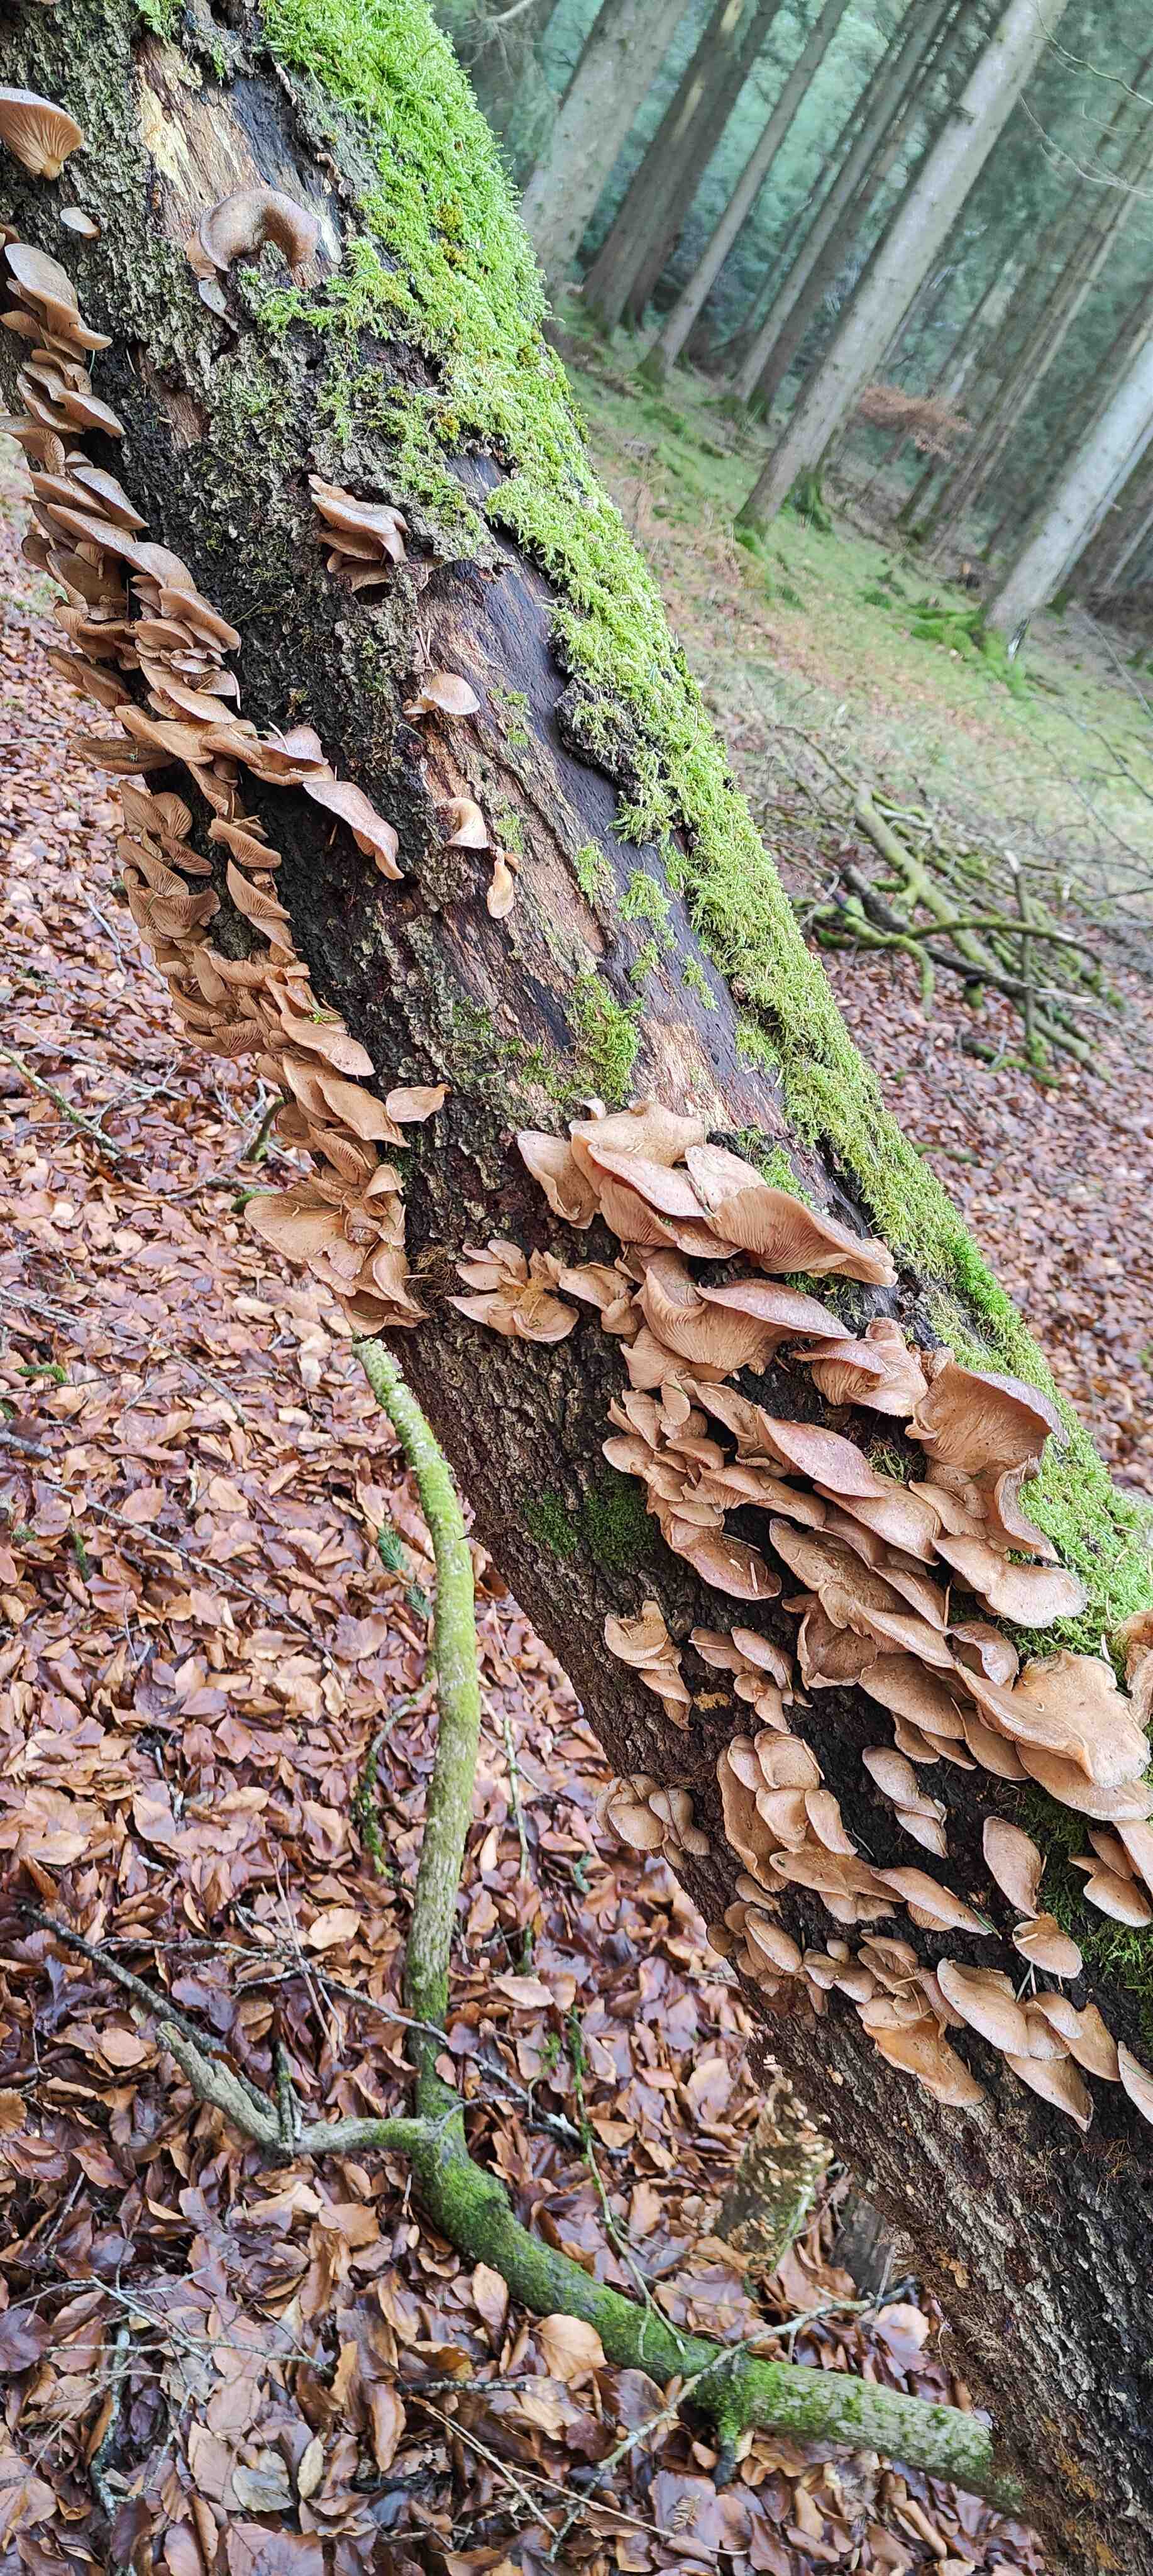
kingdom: Fungi
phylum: Basidiomycota
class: Agaricomycetes
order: Agaricales
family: Sarcomyxaceae
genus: Sarcomyxa
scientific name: Sarcomyxa serotina
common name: gummihat
